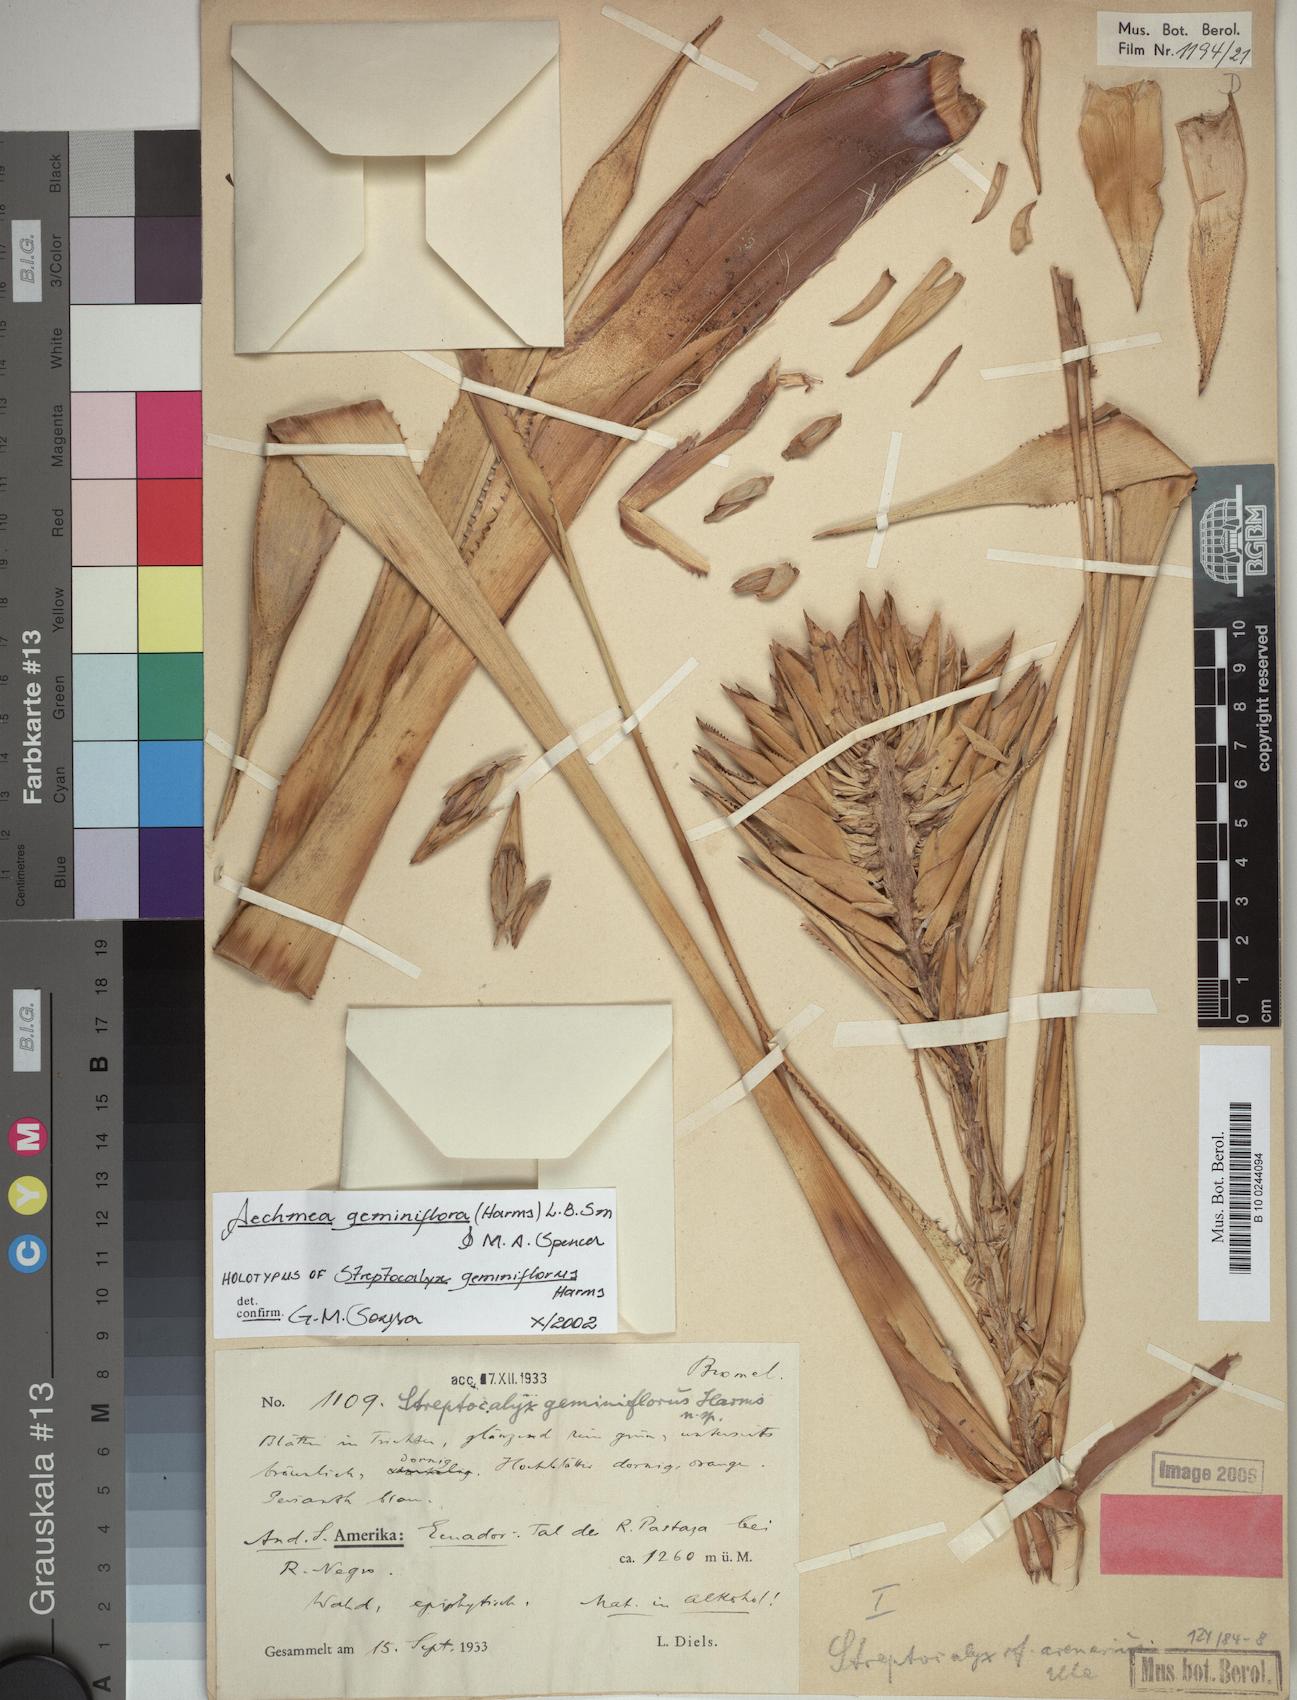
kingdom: Plantae
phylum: Tracheophyta
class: Liliopsida
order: Poales
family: Bromeliaceae
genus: Aechmea
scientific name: Aechmea geminiflora
